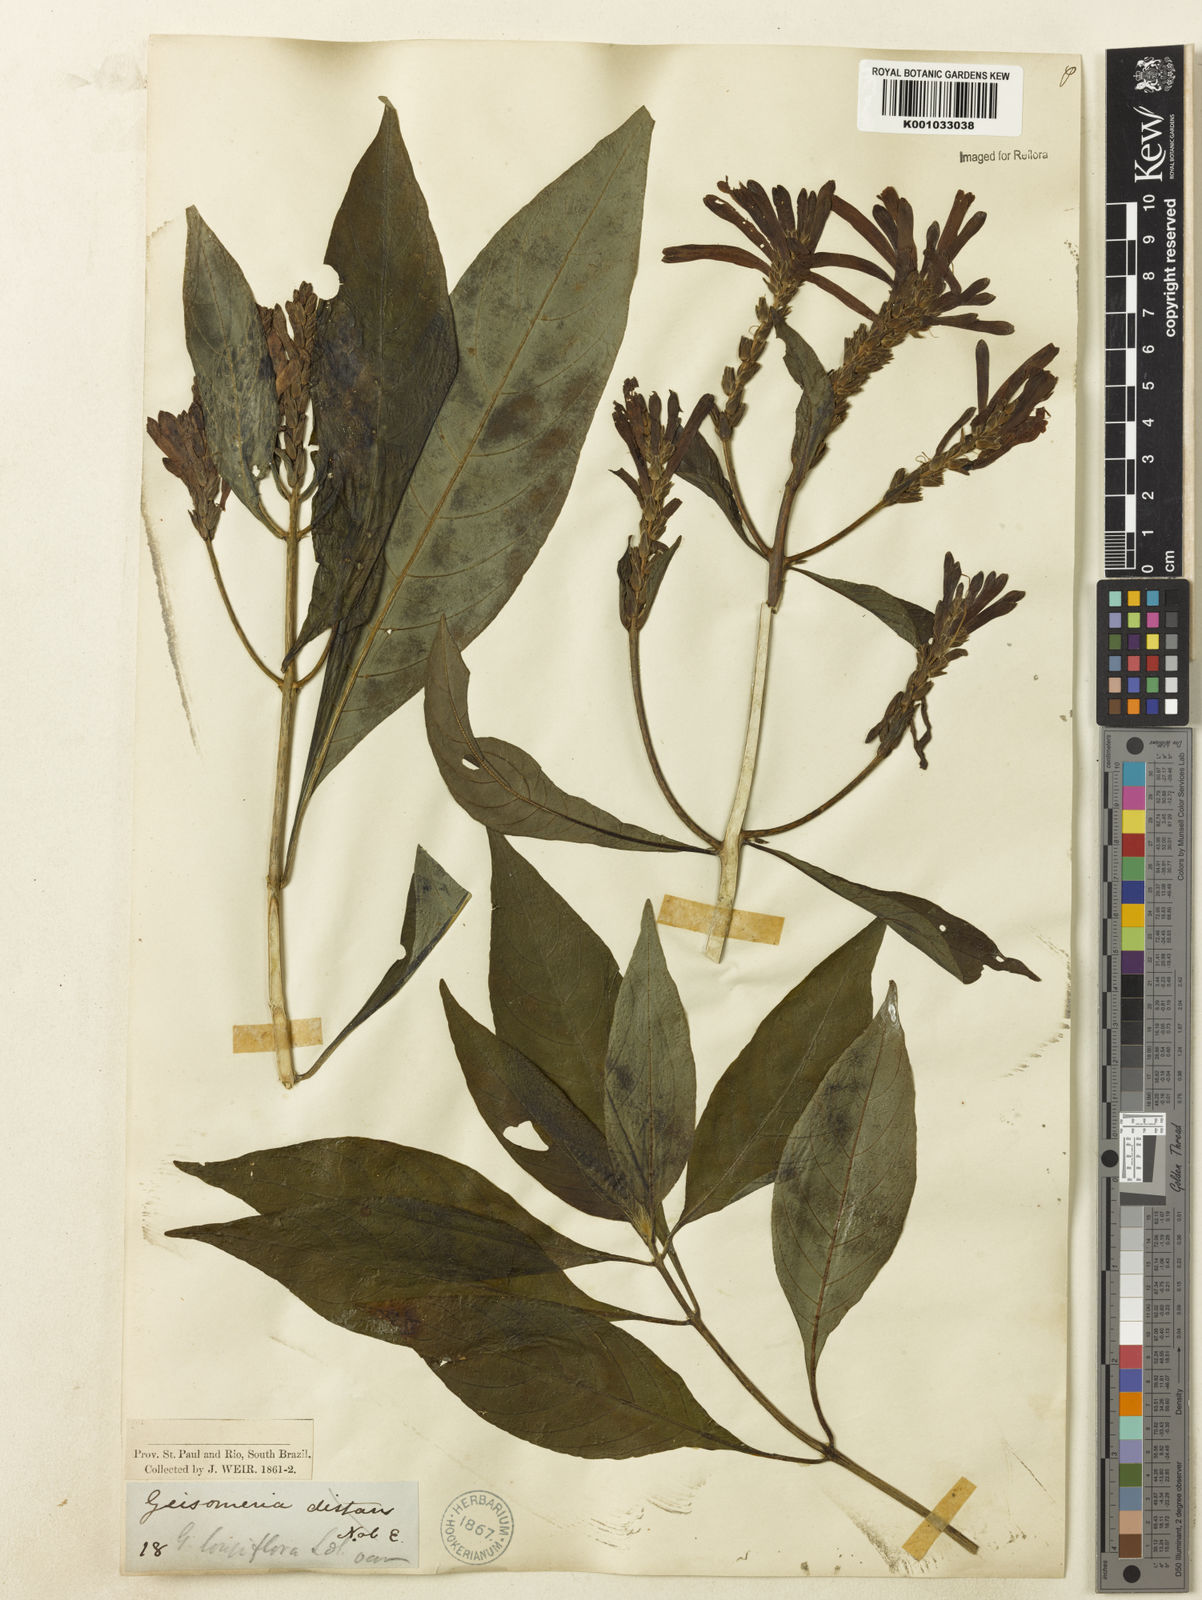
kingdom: Plantae
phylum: Tracheophyta
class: Magnoliopsida
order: Lamiales
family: Acanthaceae
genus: Aphelandra
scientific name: Aphelandra longiflora
